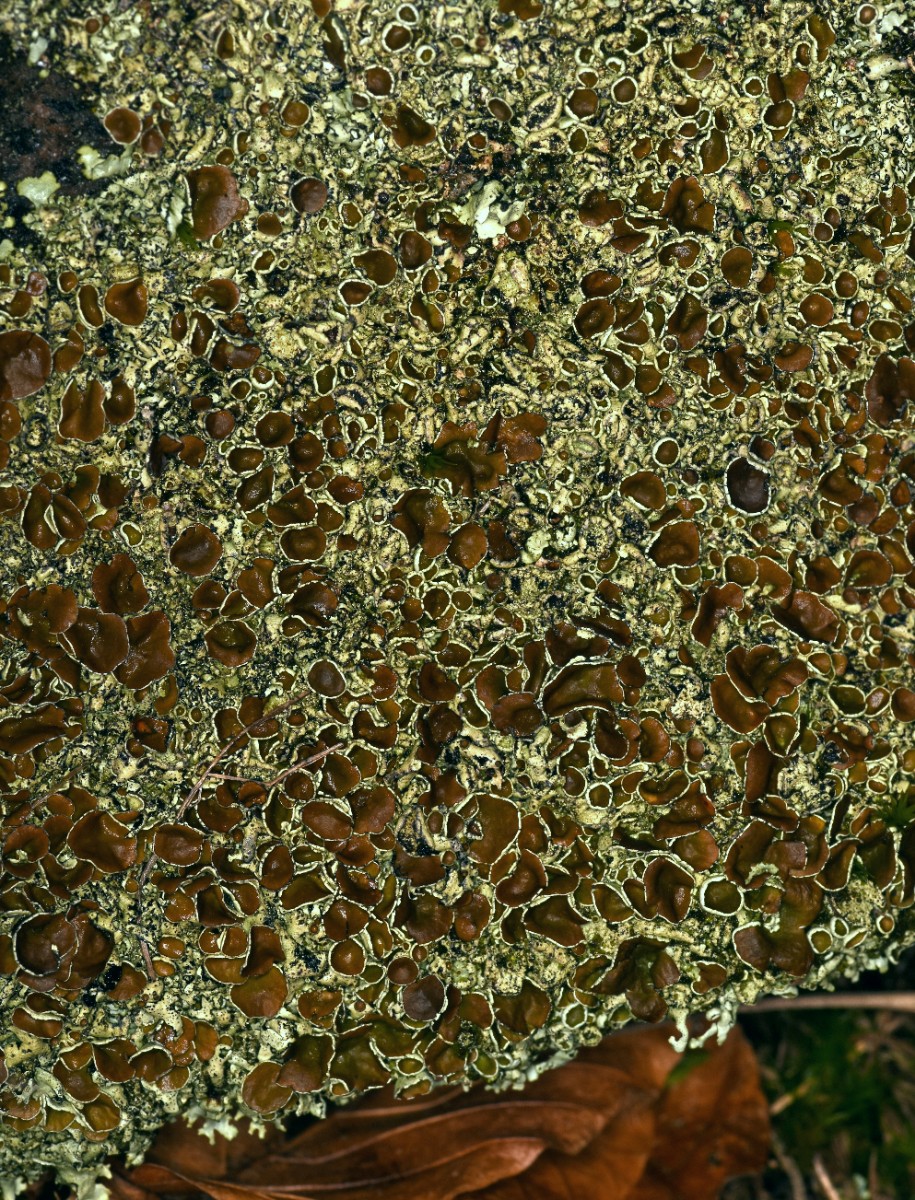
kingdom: Fungi
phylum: Ascomycota
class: Lecanoromycetes
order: Lecanorales
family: Parmeliaceae
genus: Xanthoparmelia
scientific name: Xanthoparmelia conspersa
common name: messing-skållav
